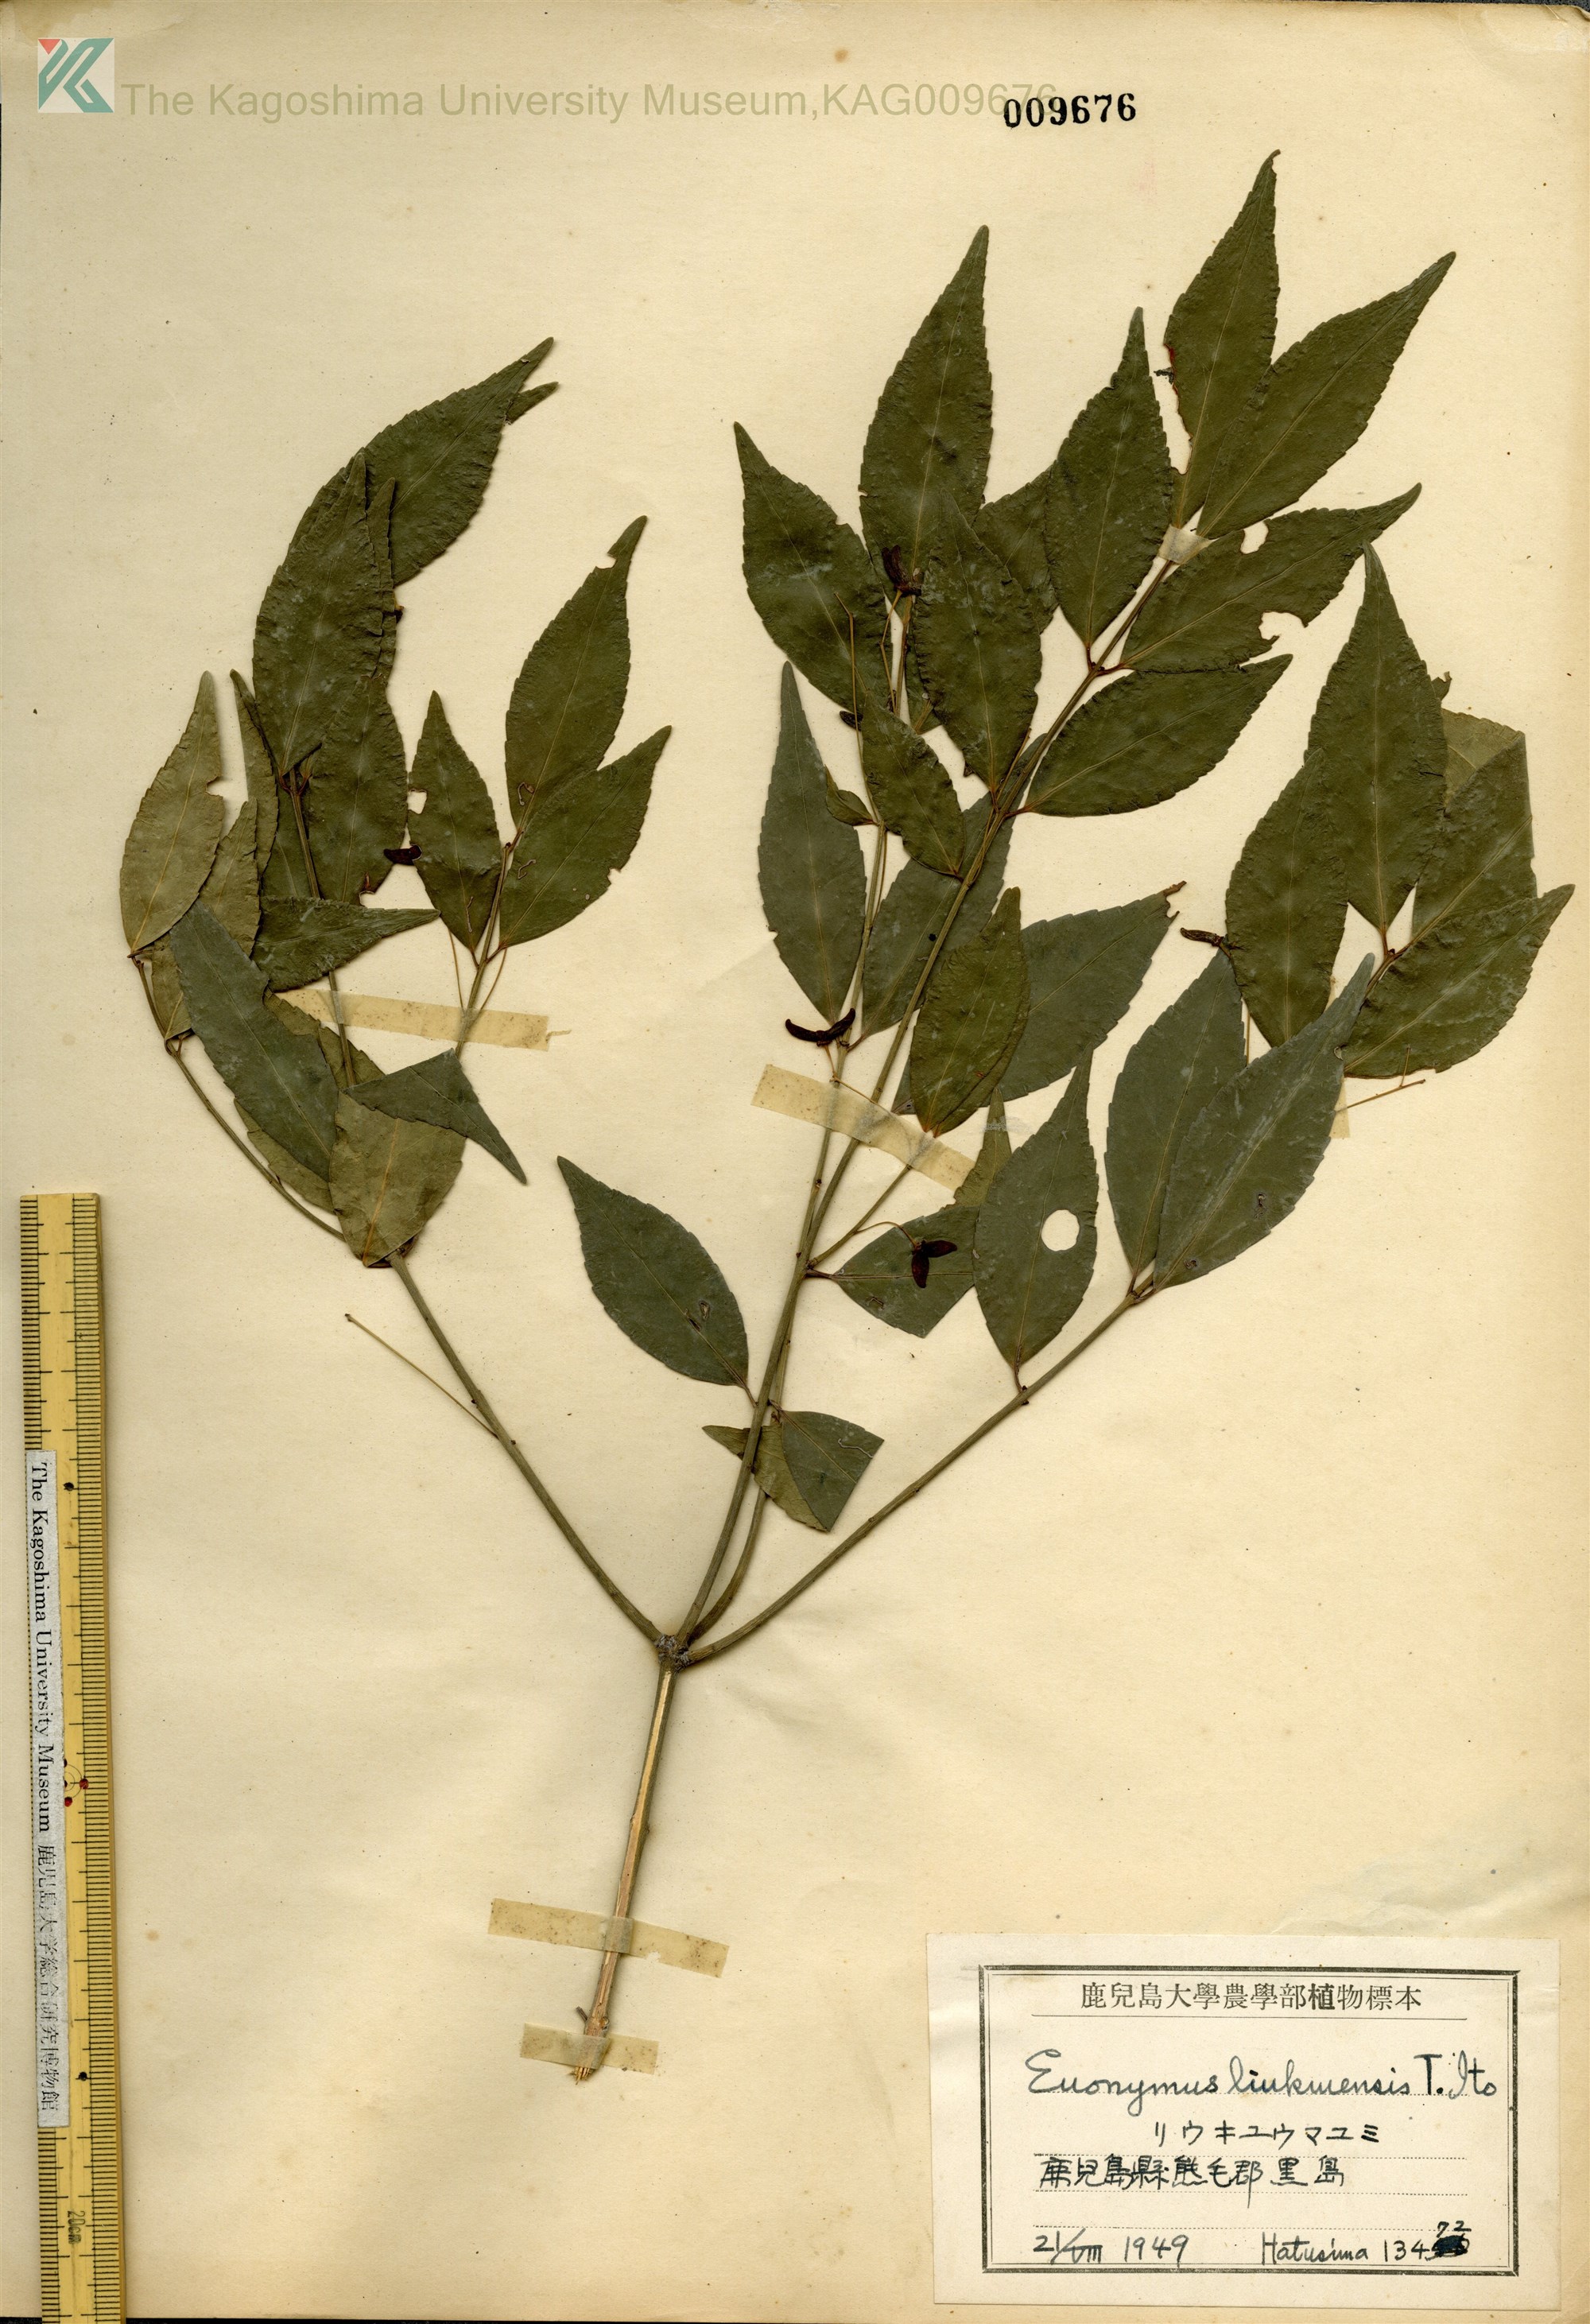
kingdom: Plantae
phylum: Tracheophyta
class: Magnoliopsida
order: Celastrales
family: Celastraceae
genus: Euonymus
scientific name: Euonymus lutchuensis
